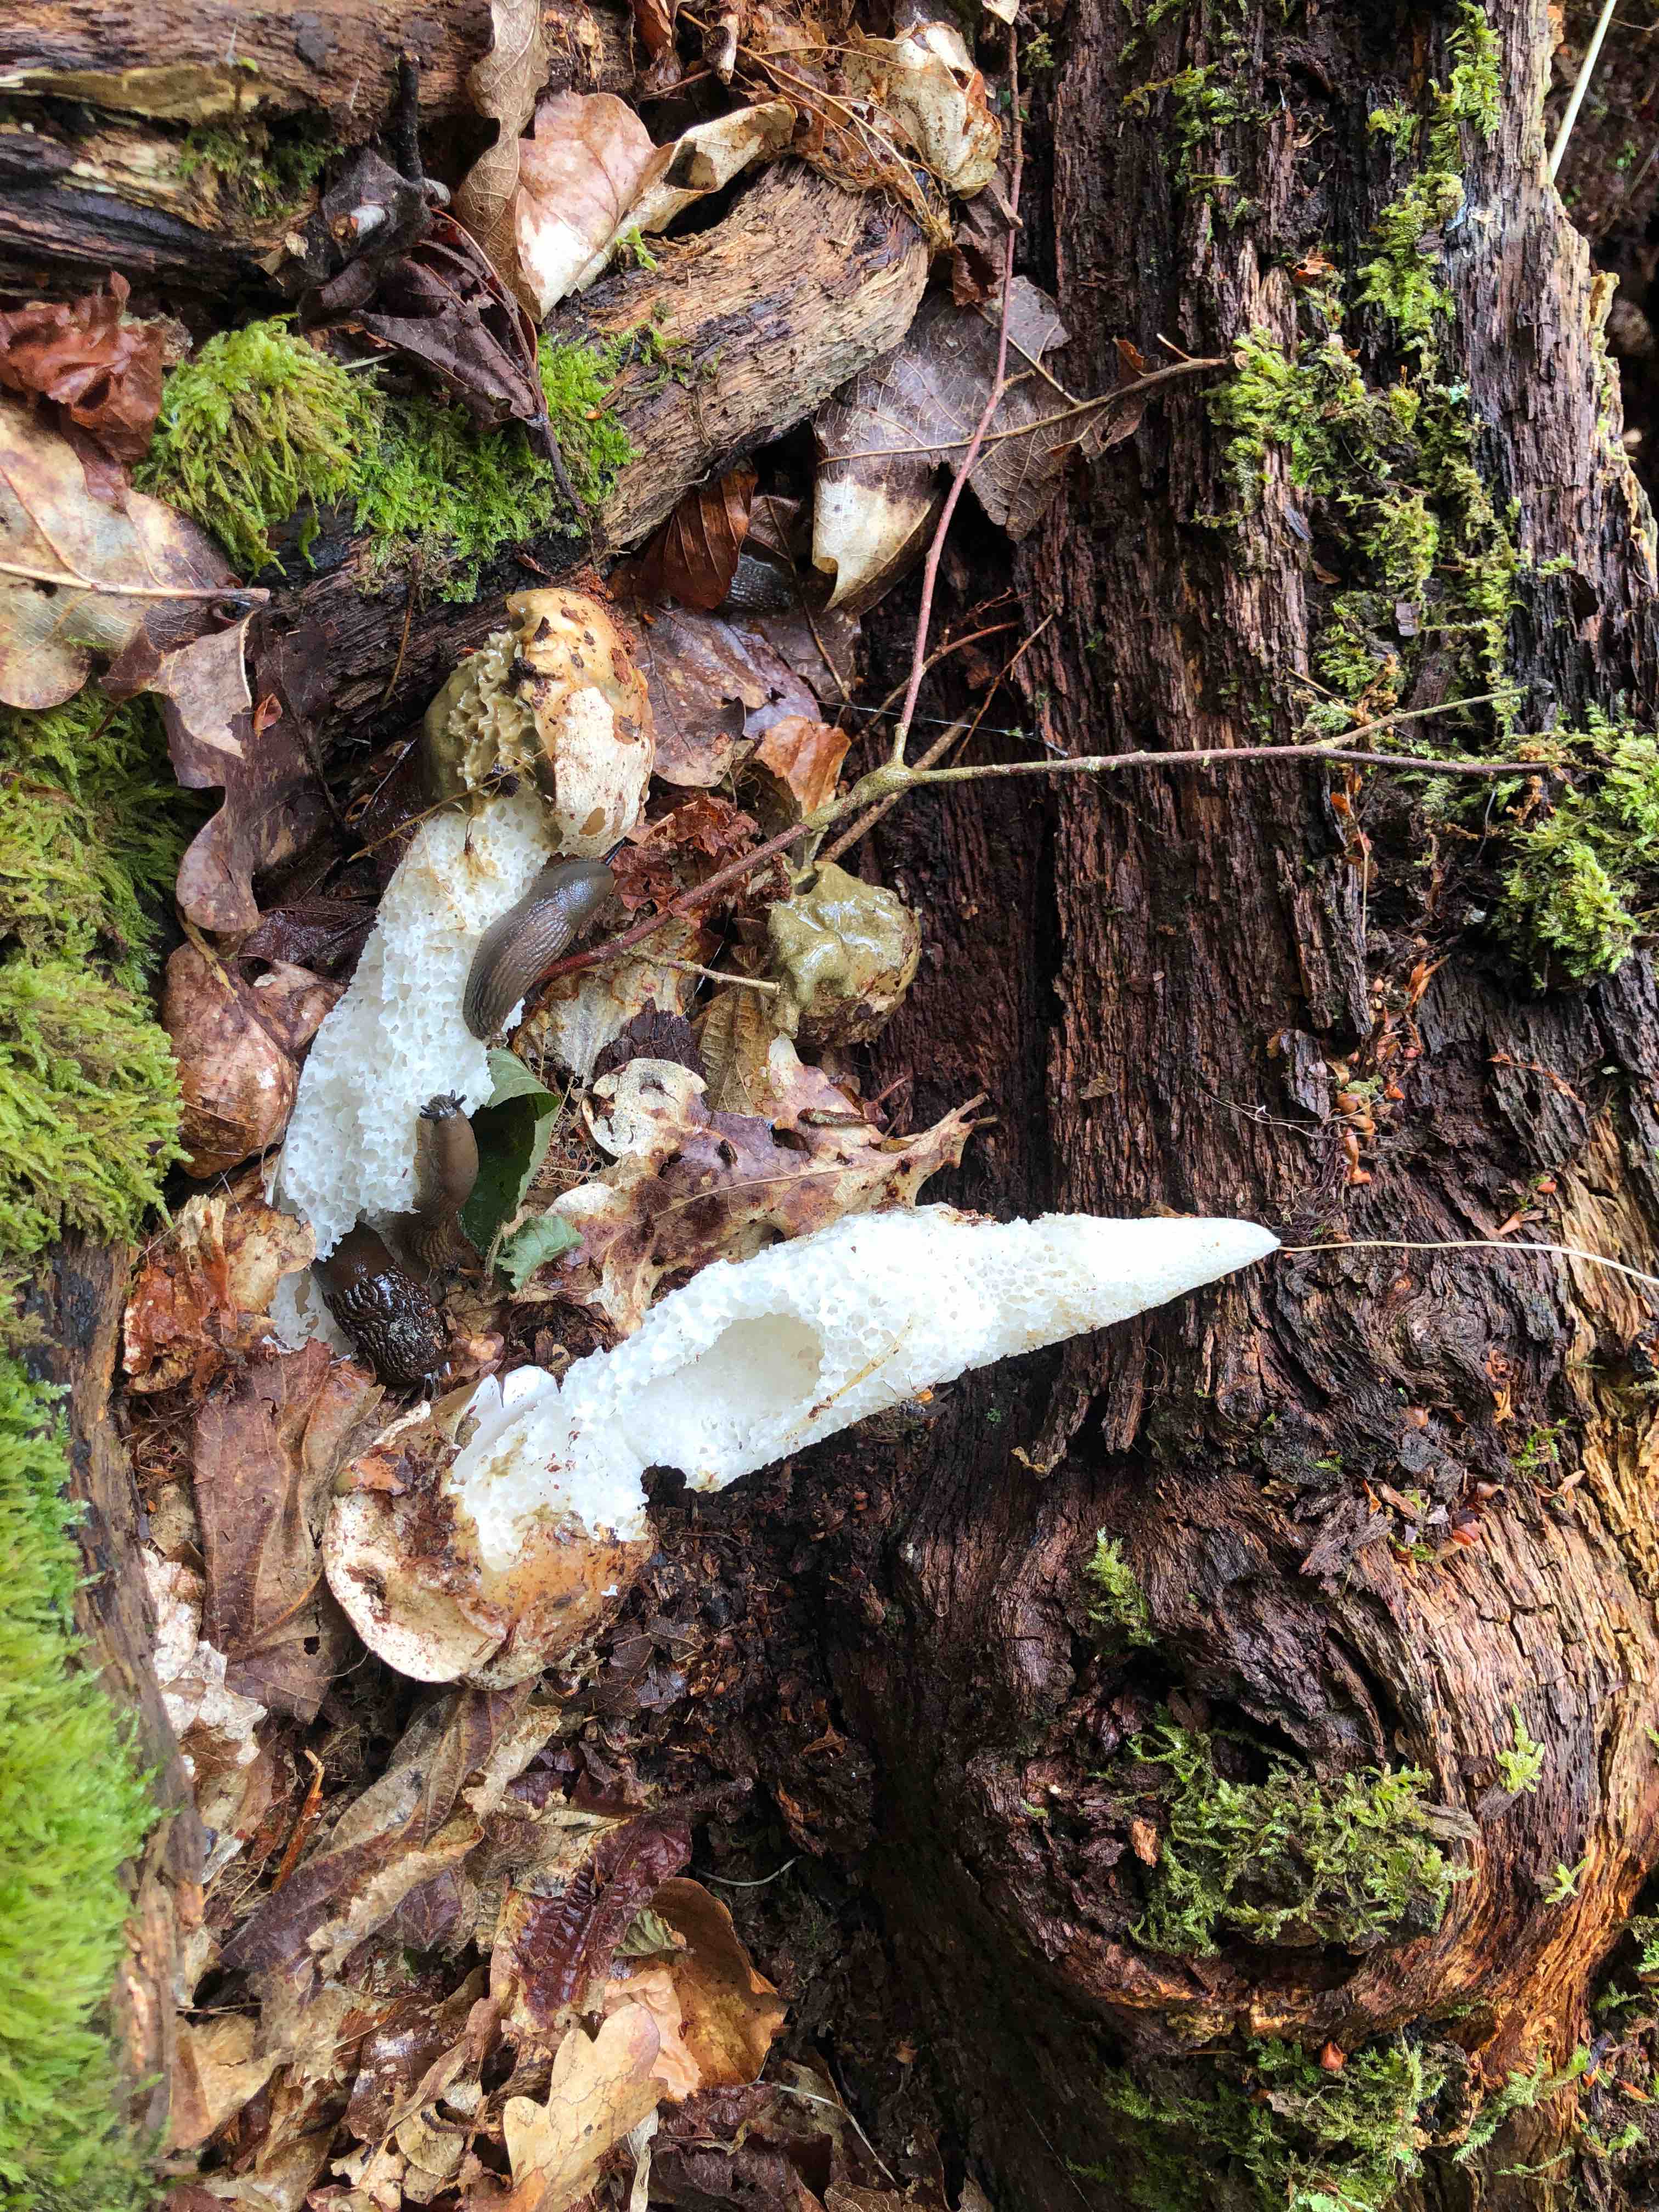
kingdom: Fungi
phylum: Basidiomycota
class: Agaricomycetes
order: Phallales
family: Phallaceae
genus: Phallus
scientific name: Phallus impudicus
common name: almindelig stinksvamp
